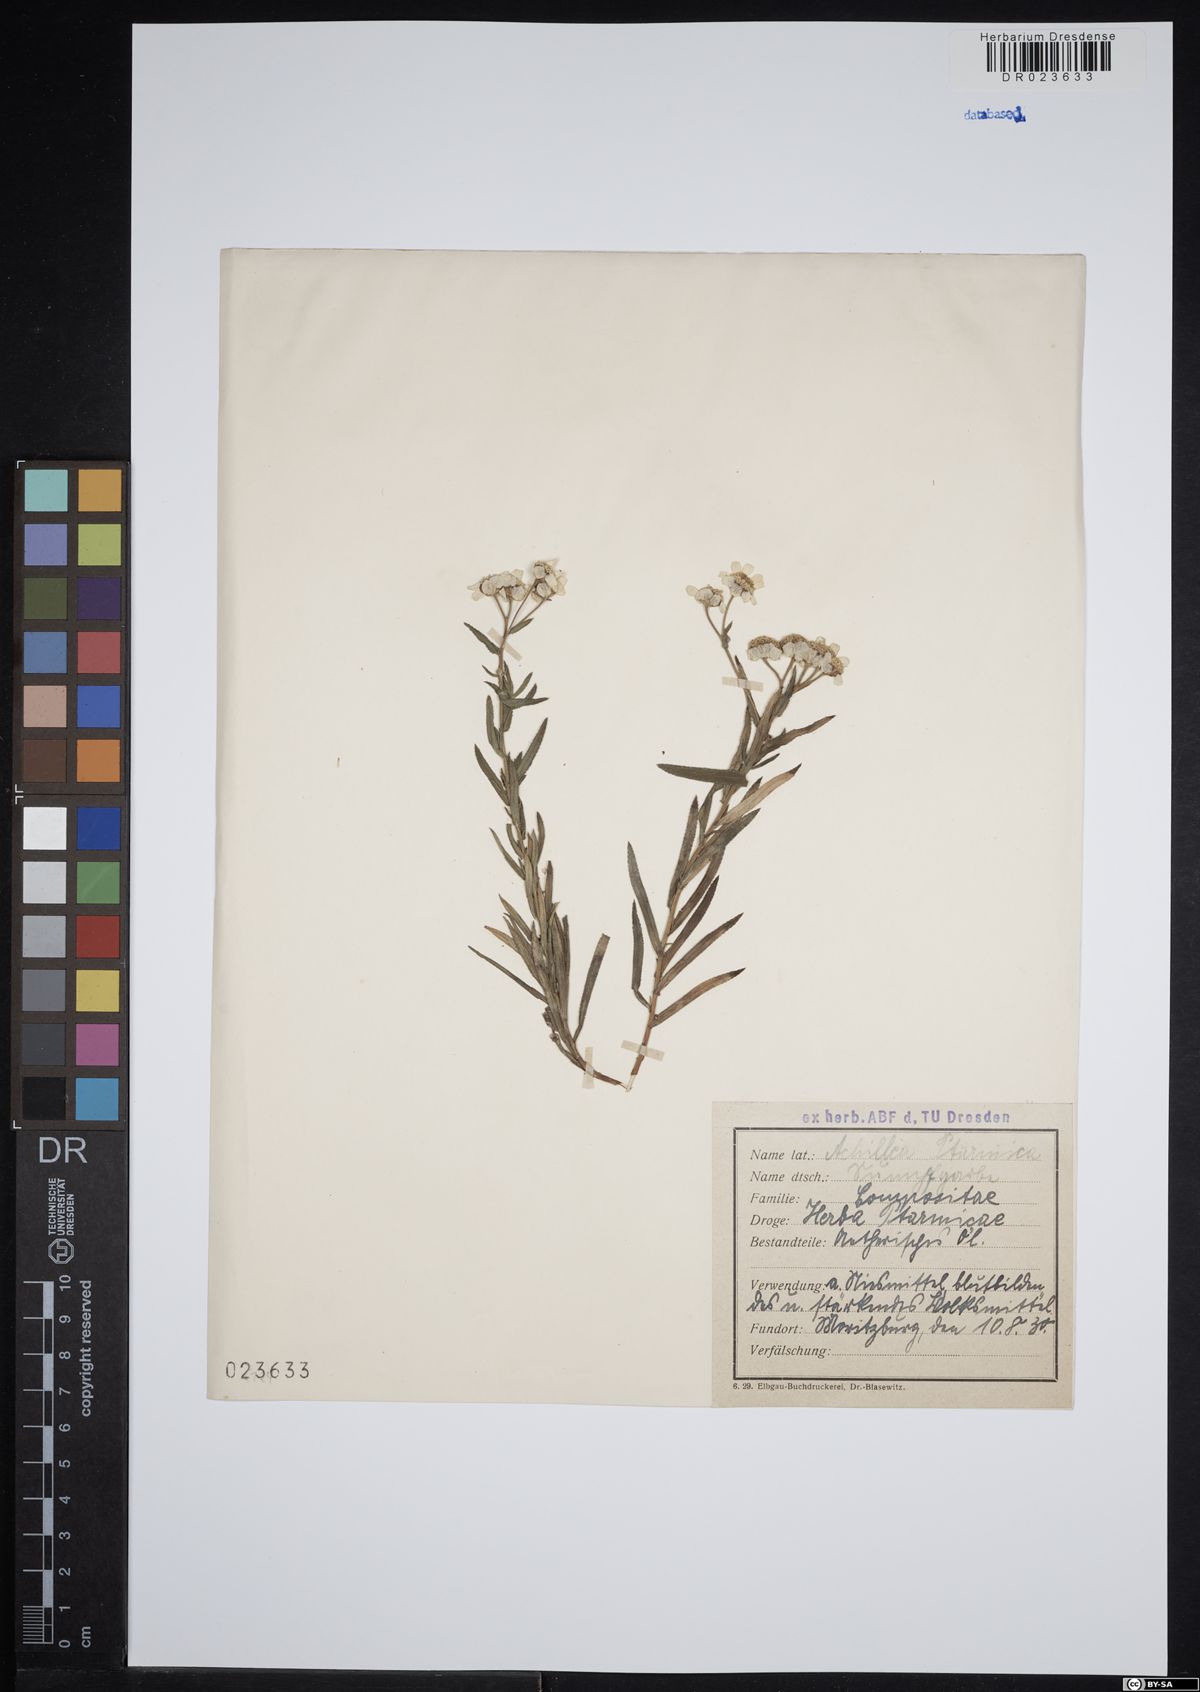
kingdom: Plantae
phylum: Tracheophyta
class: Magnoliopsida
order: Asterales
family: Asteraceae
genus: Achillea
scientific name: Achillea ptarmica
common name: Sneezeweed
